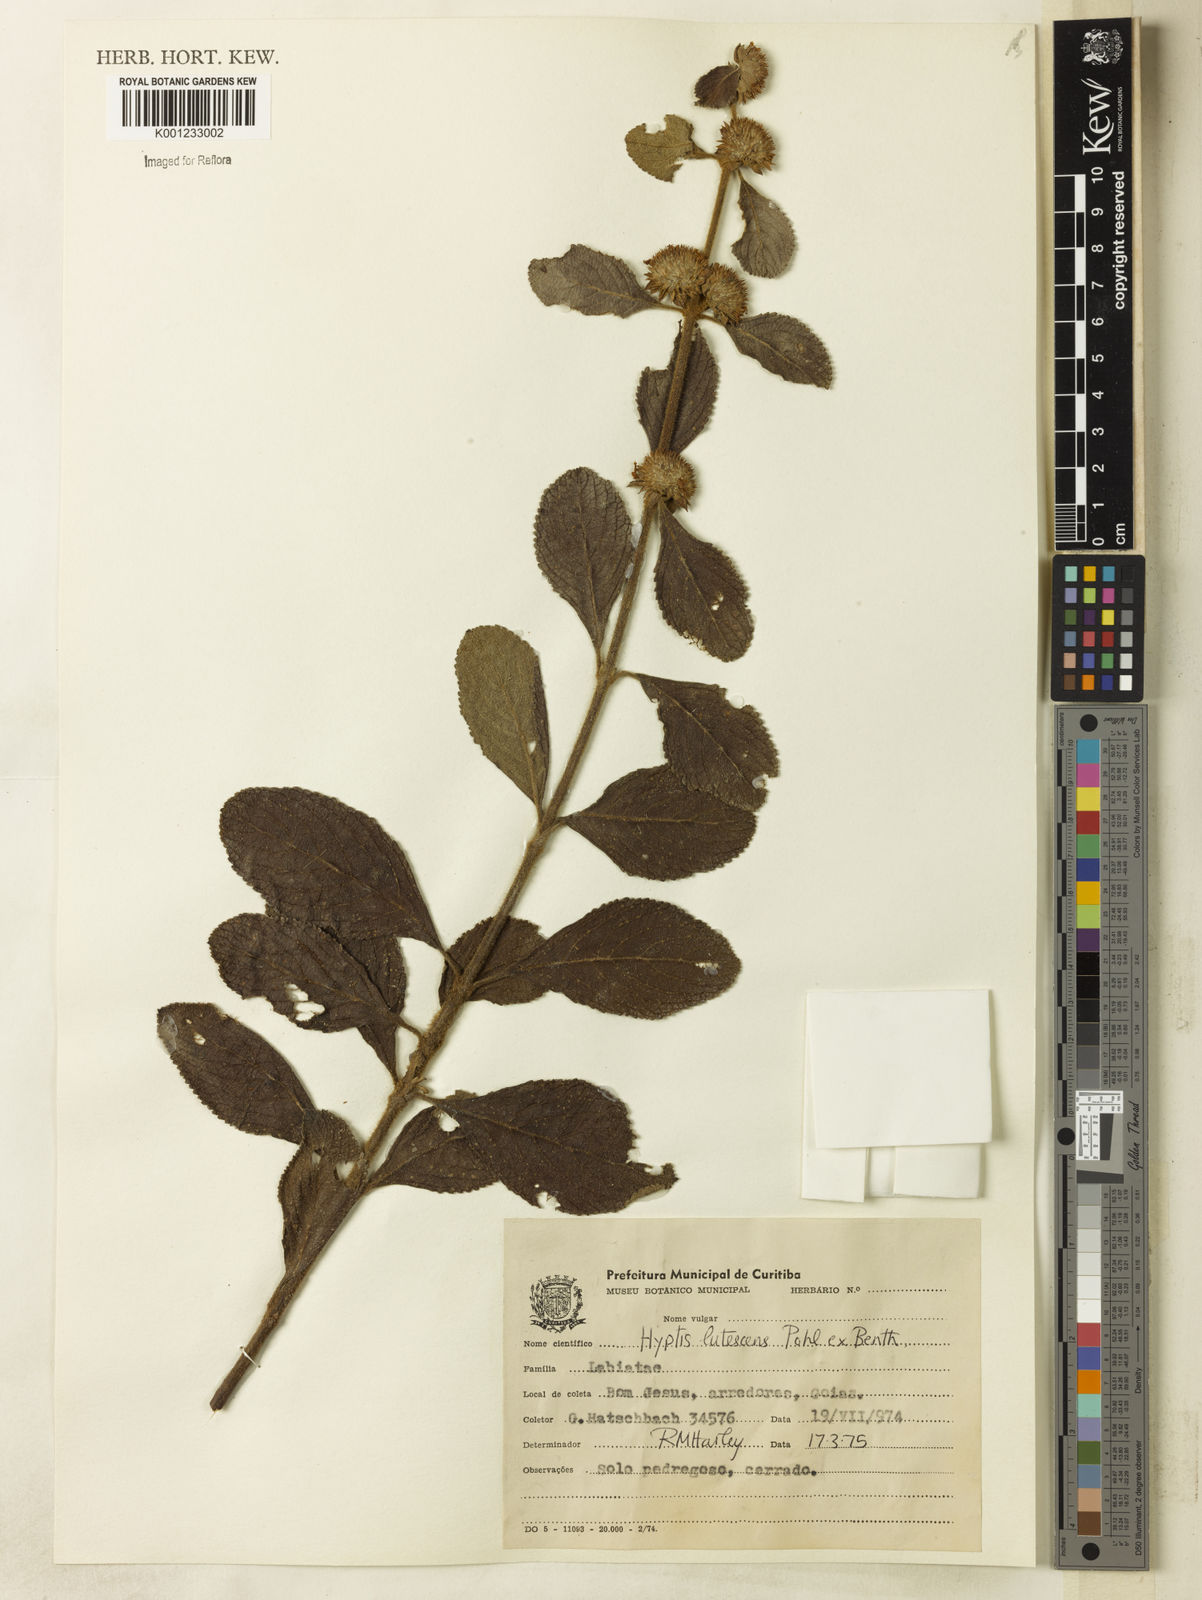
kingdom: Plantae
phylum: Tracheophyta
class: Magnoliopsida
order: Lamiales
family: Lamiaceae
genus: Hyptis
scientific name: Hyptis lutescens
